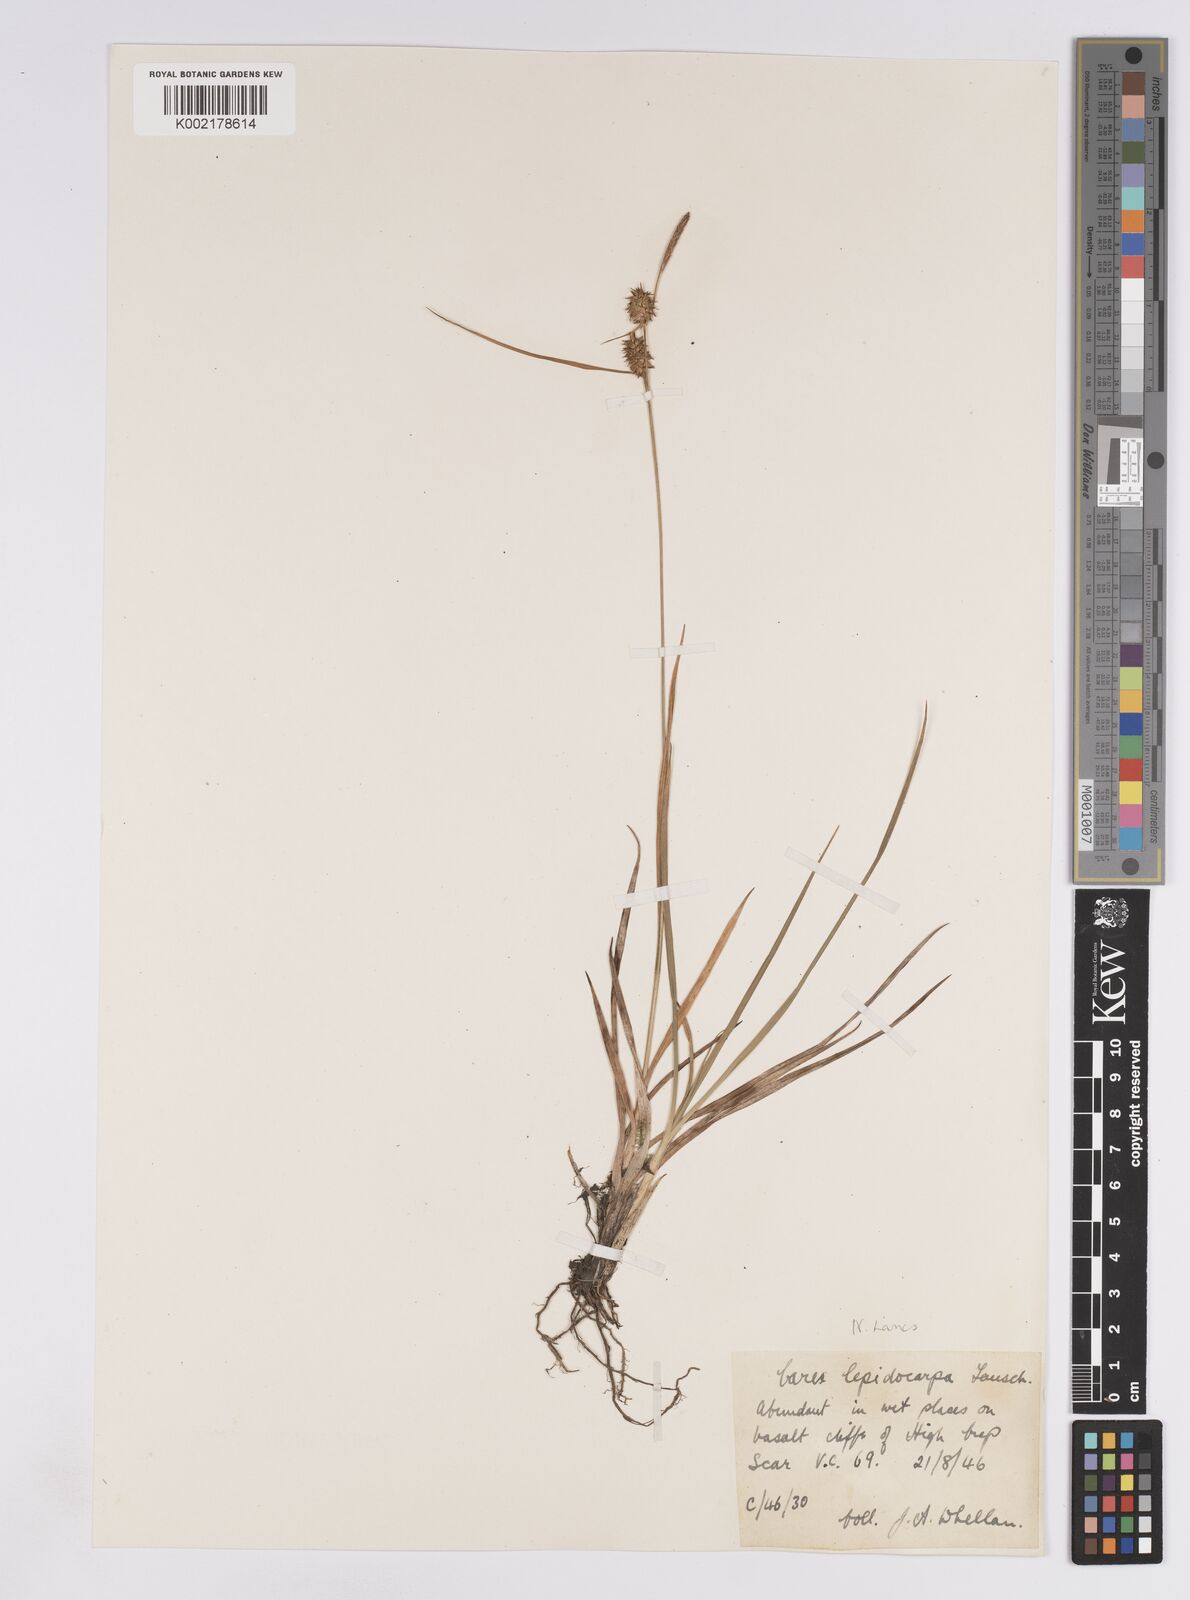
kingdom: Plantae
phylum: Tracheophyta
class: Liliopsida
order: Poales
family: Cyperaceae
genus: Carex
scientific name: Carex lepidocarpa
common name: Long-stalked yellow-sedge
